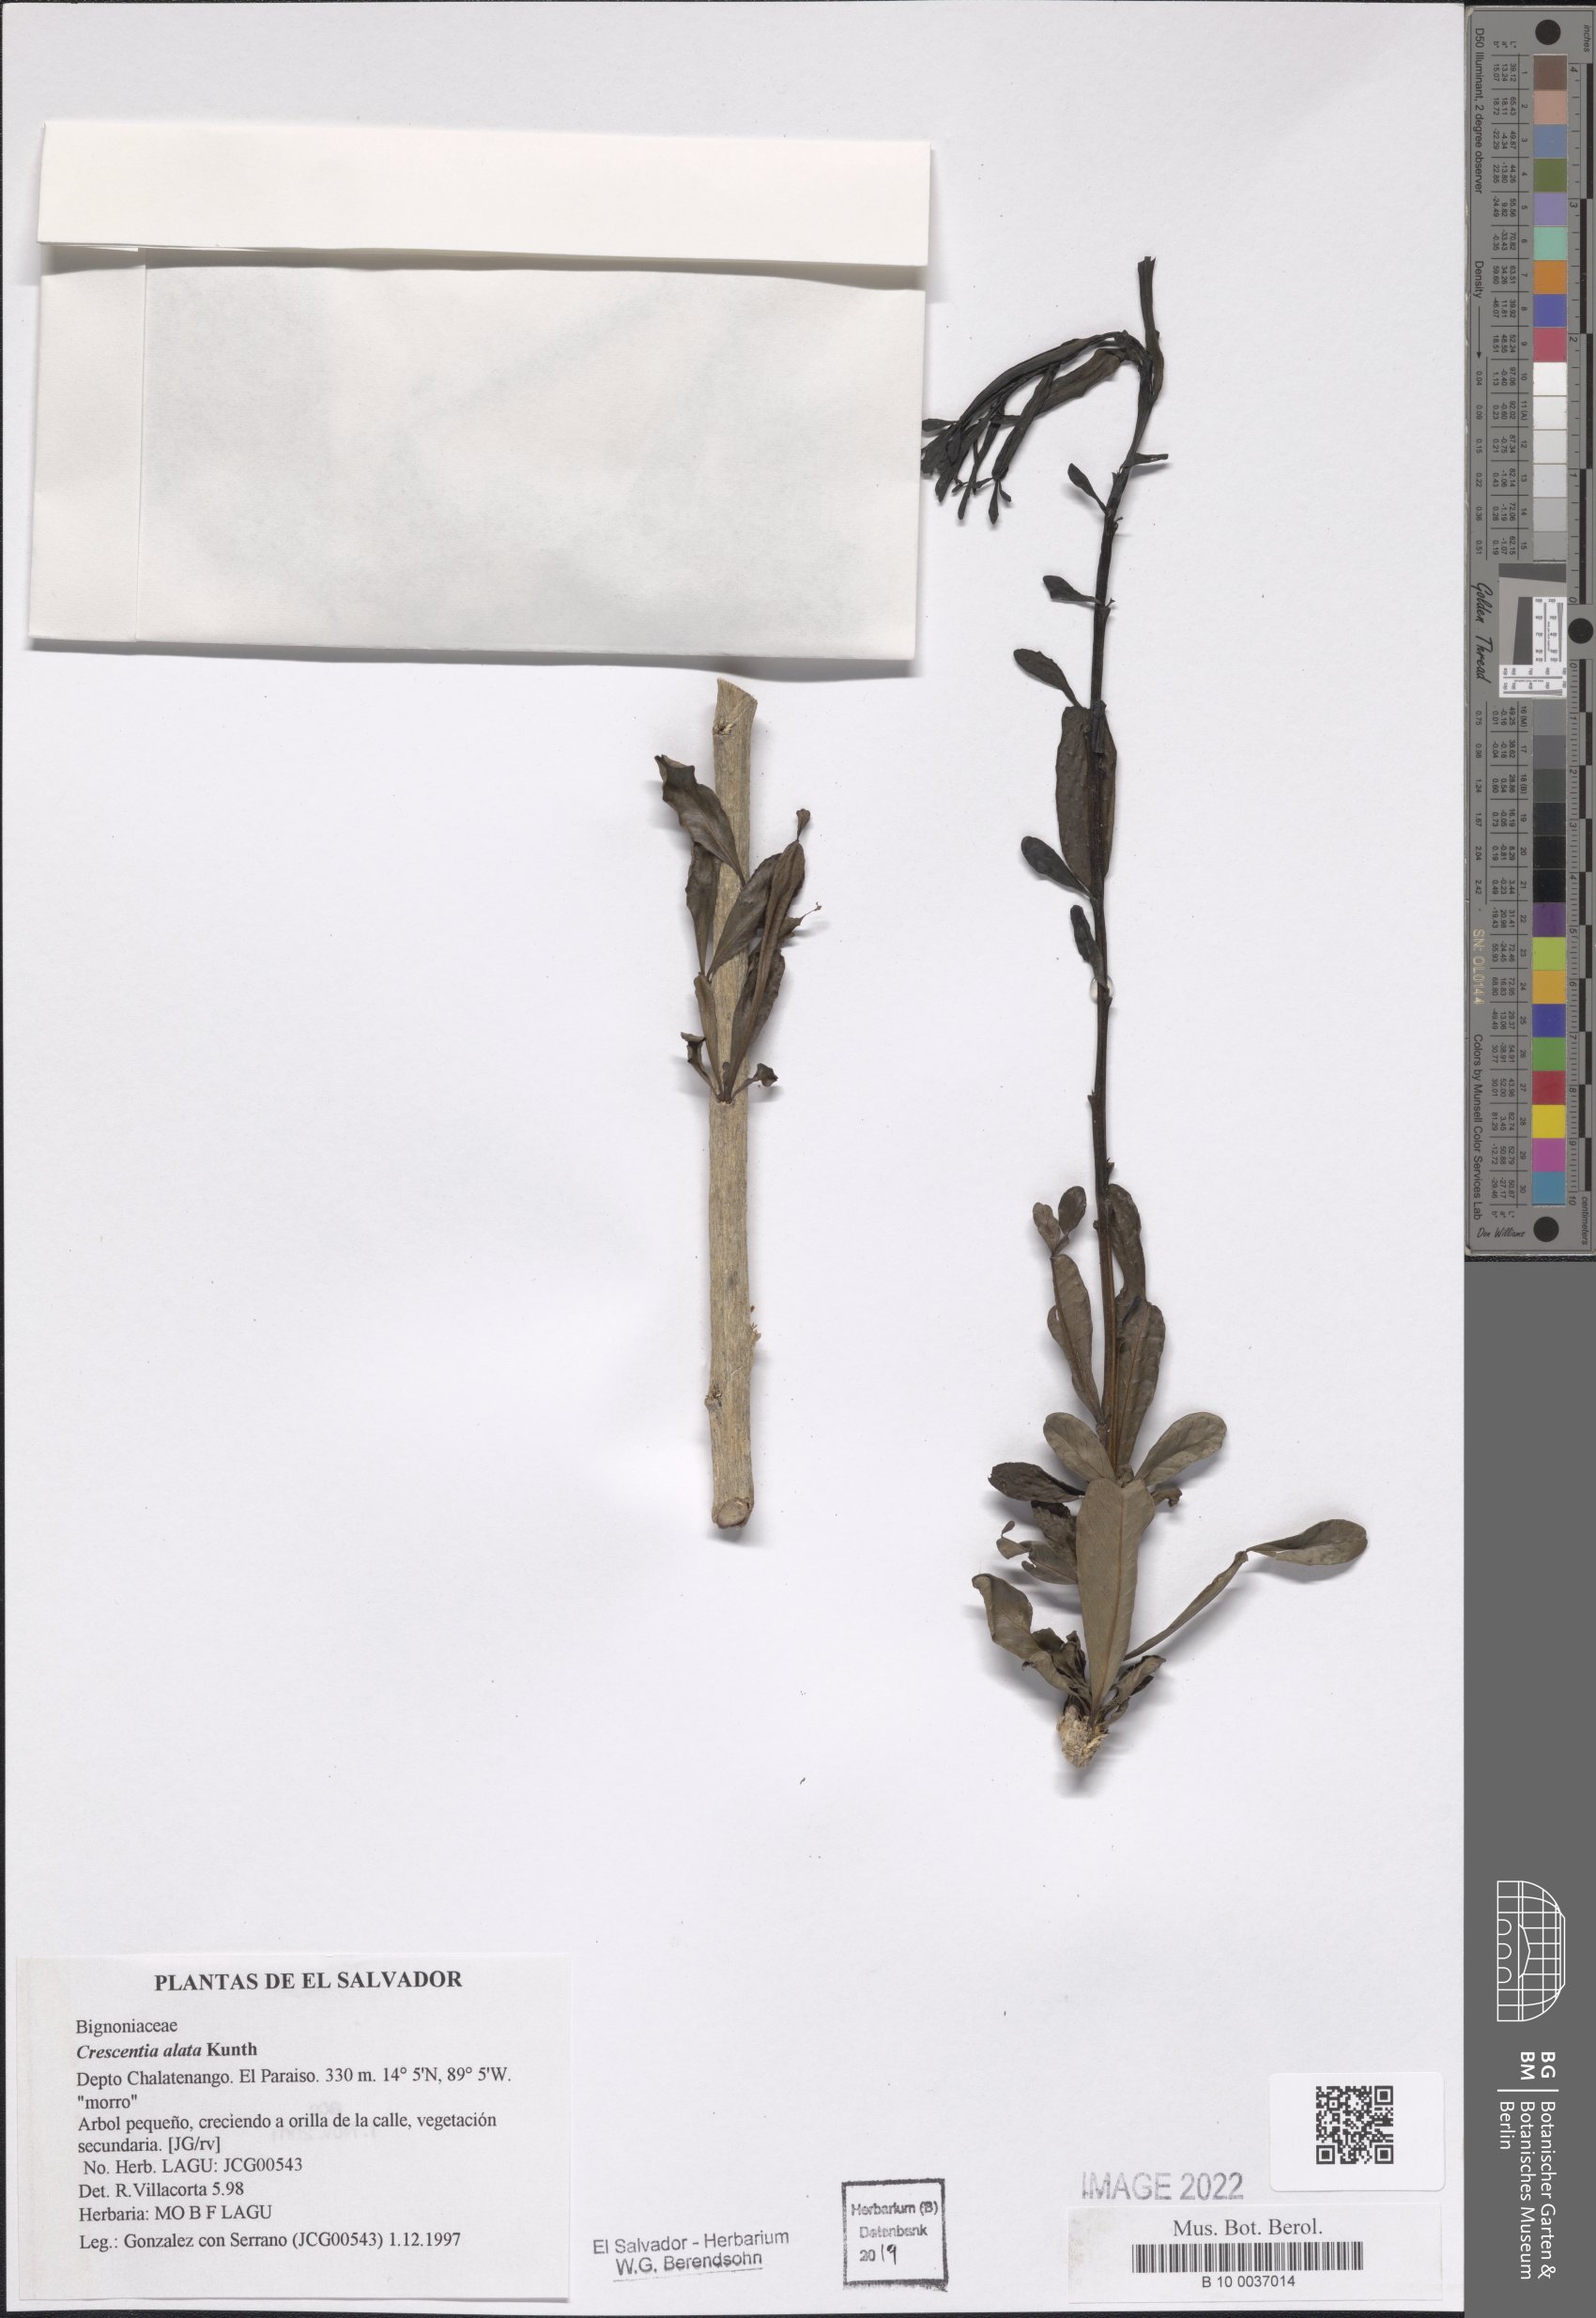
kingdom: Plantae
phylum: Tracheophyta
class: Magnoliopsida
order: Lamiales
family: Bignoniaceae
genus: Crescentia
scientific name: Crescentia alata
